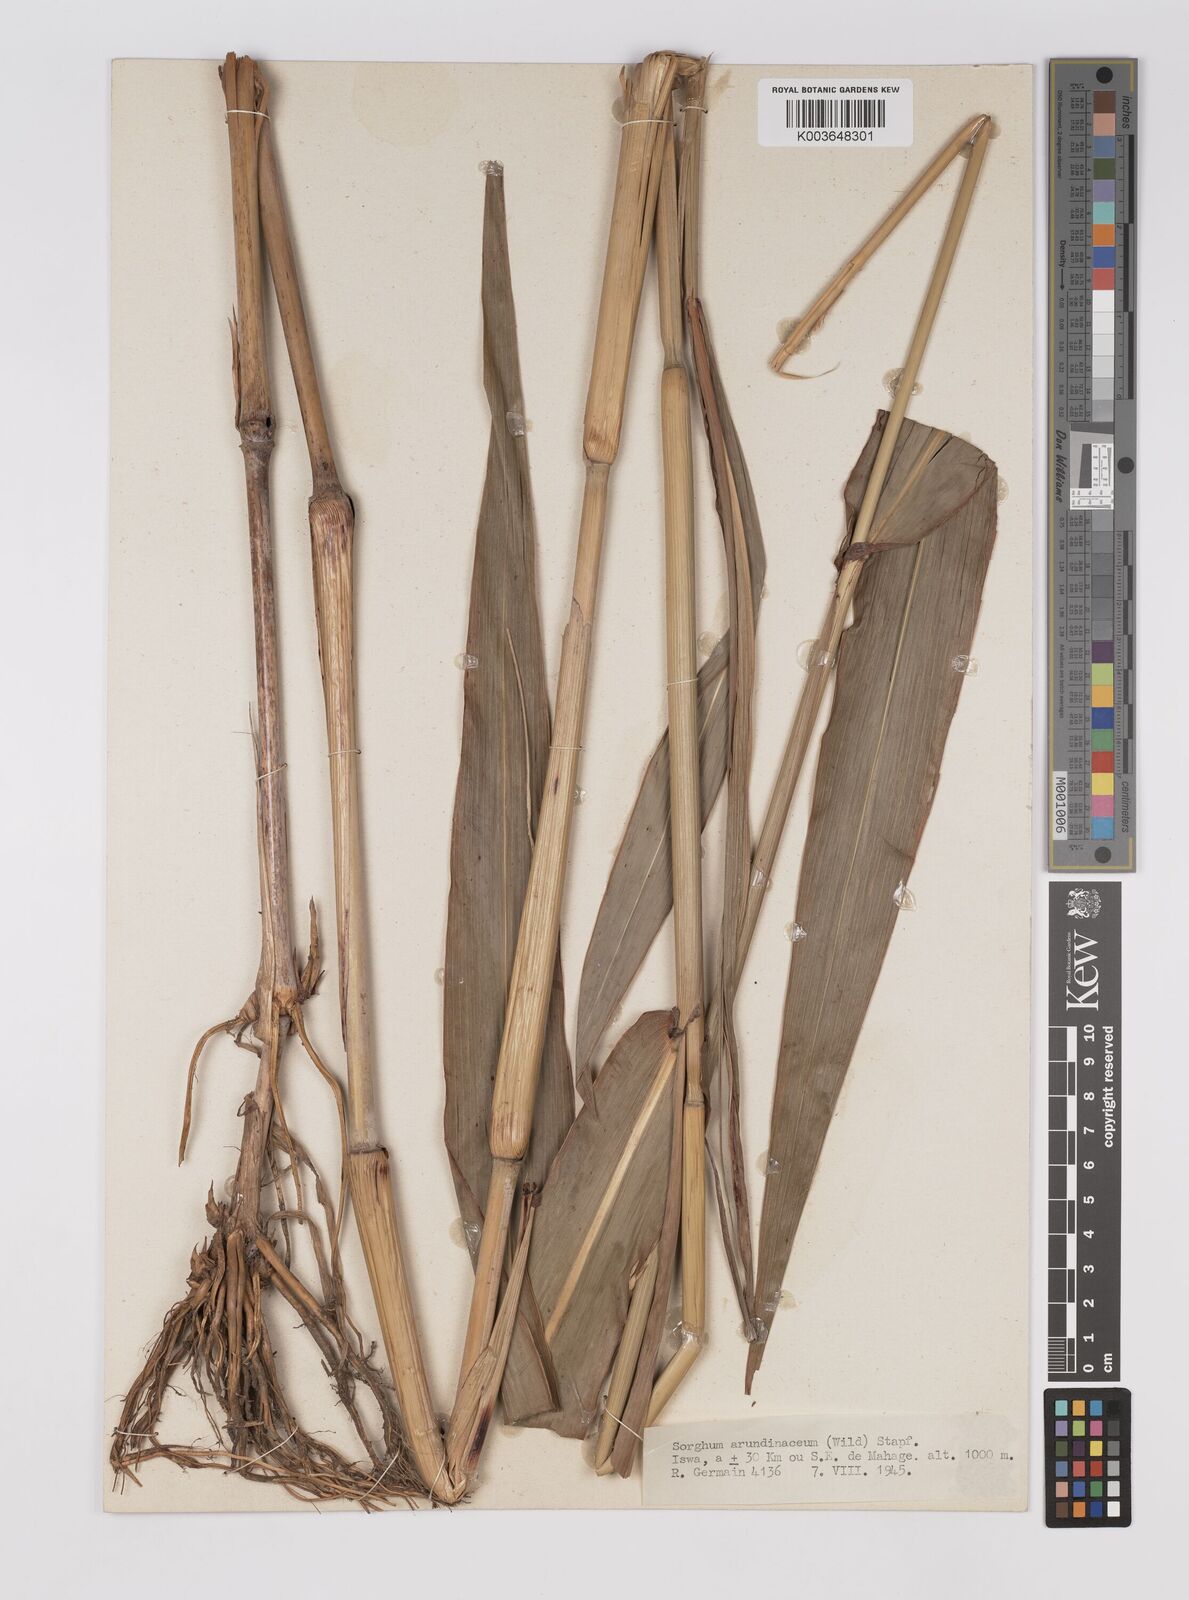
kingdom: Plantae
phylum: Tracheophyta
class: Liliopsida
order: Poales
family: Poaceae
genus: Sorghum
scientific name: Sorghum arundinaceum
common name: Sorghum
